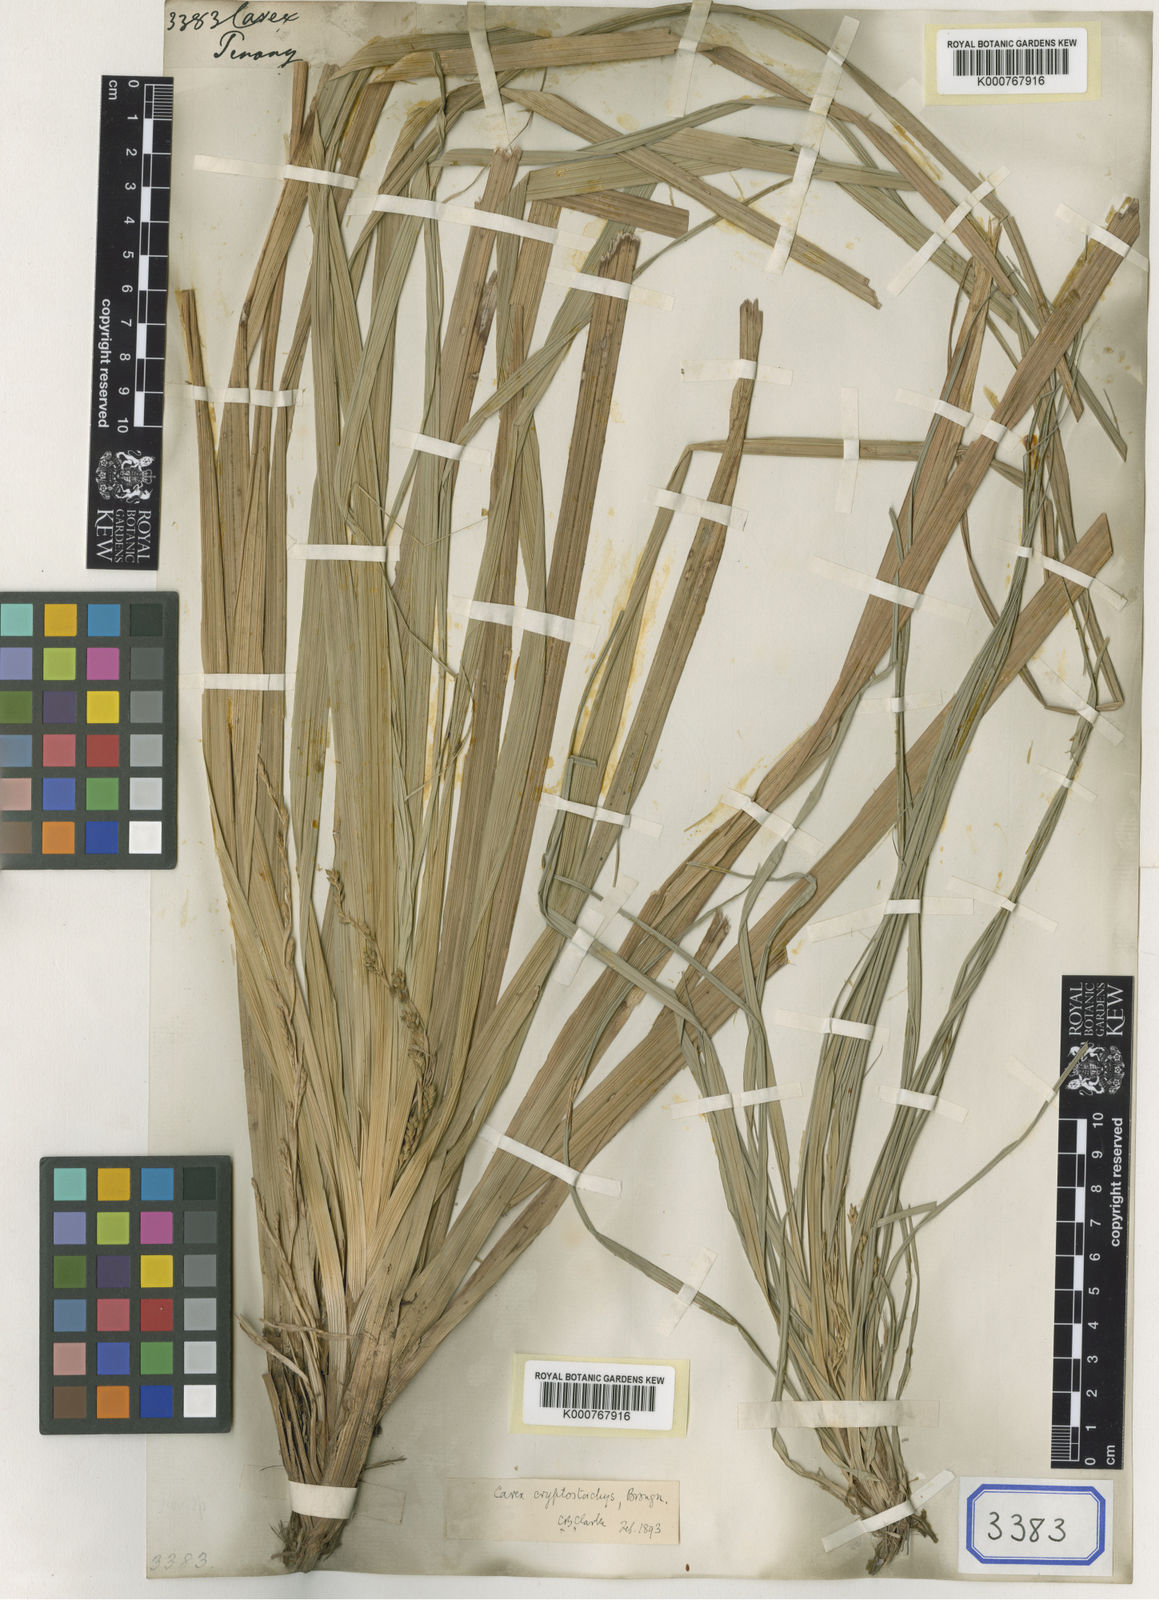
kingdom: Plantae
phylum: Tracheophyta
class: Liliopsida
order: Poales
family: Cyperaceae
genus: Carex
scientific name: Carex
